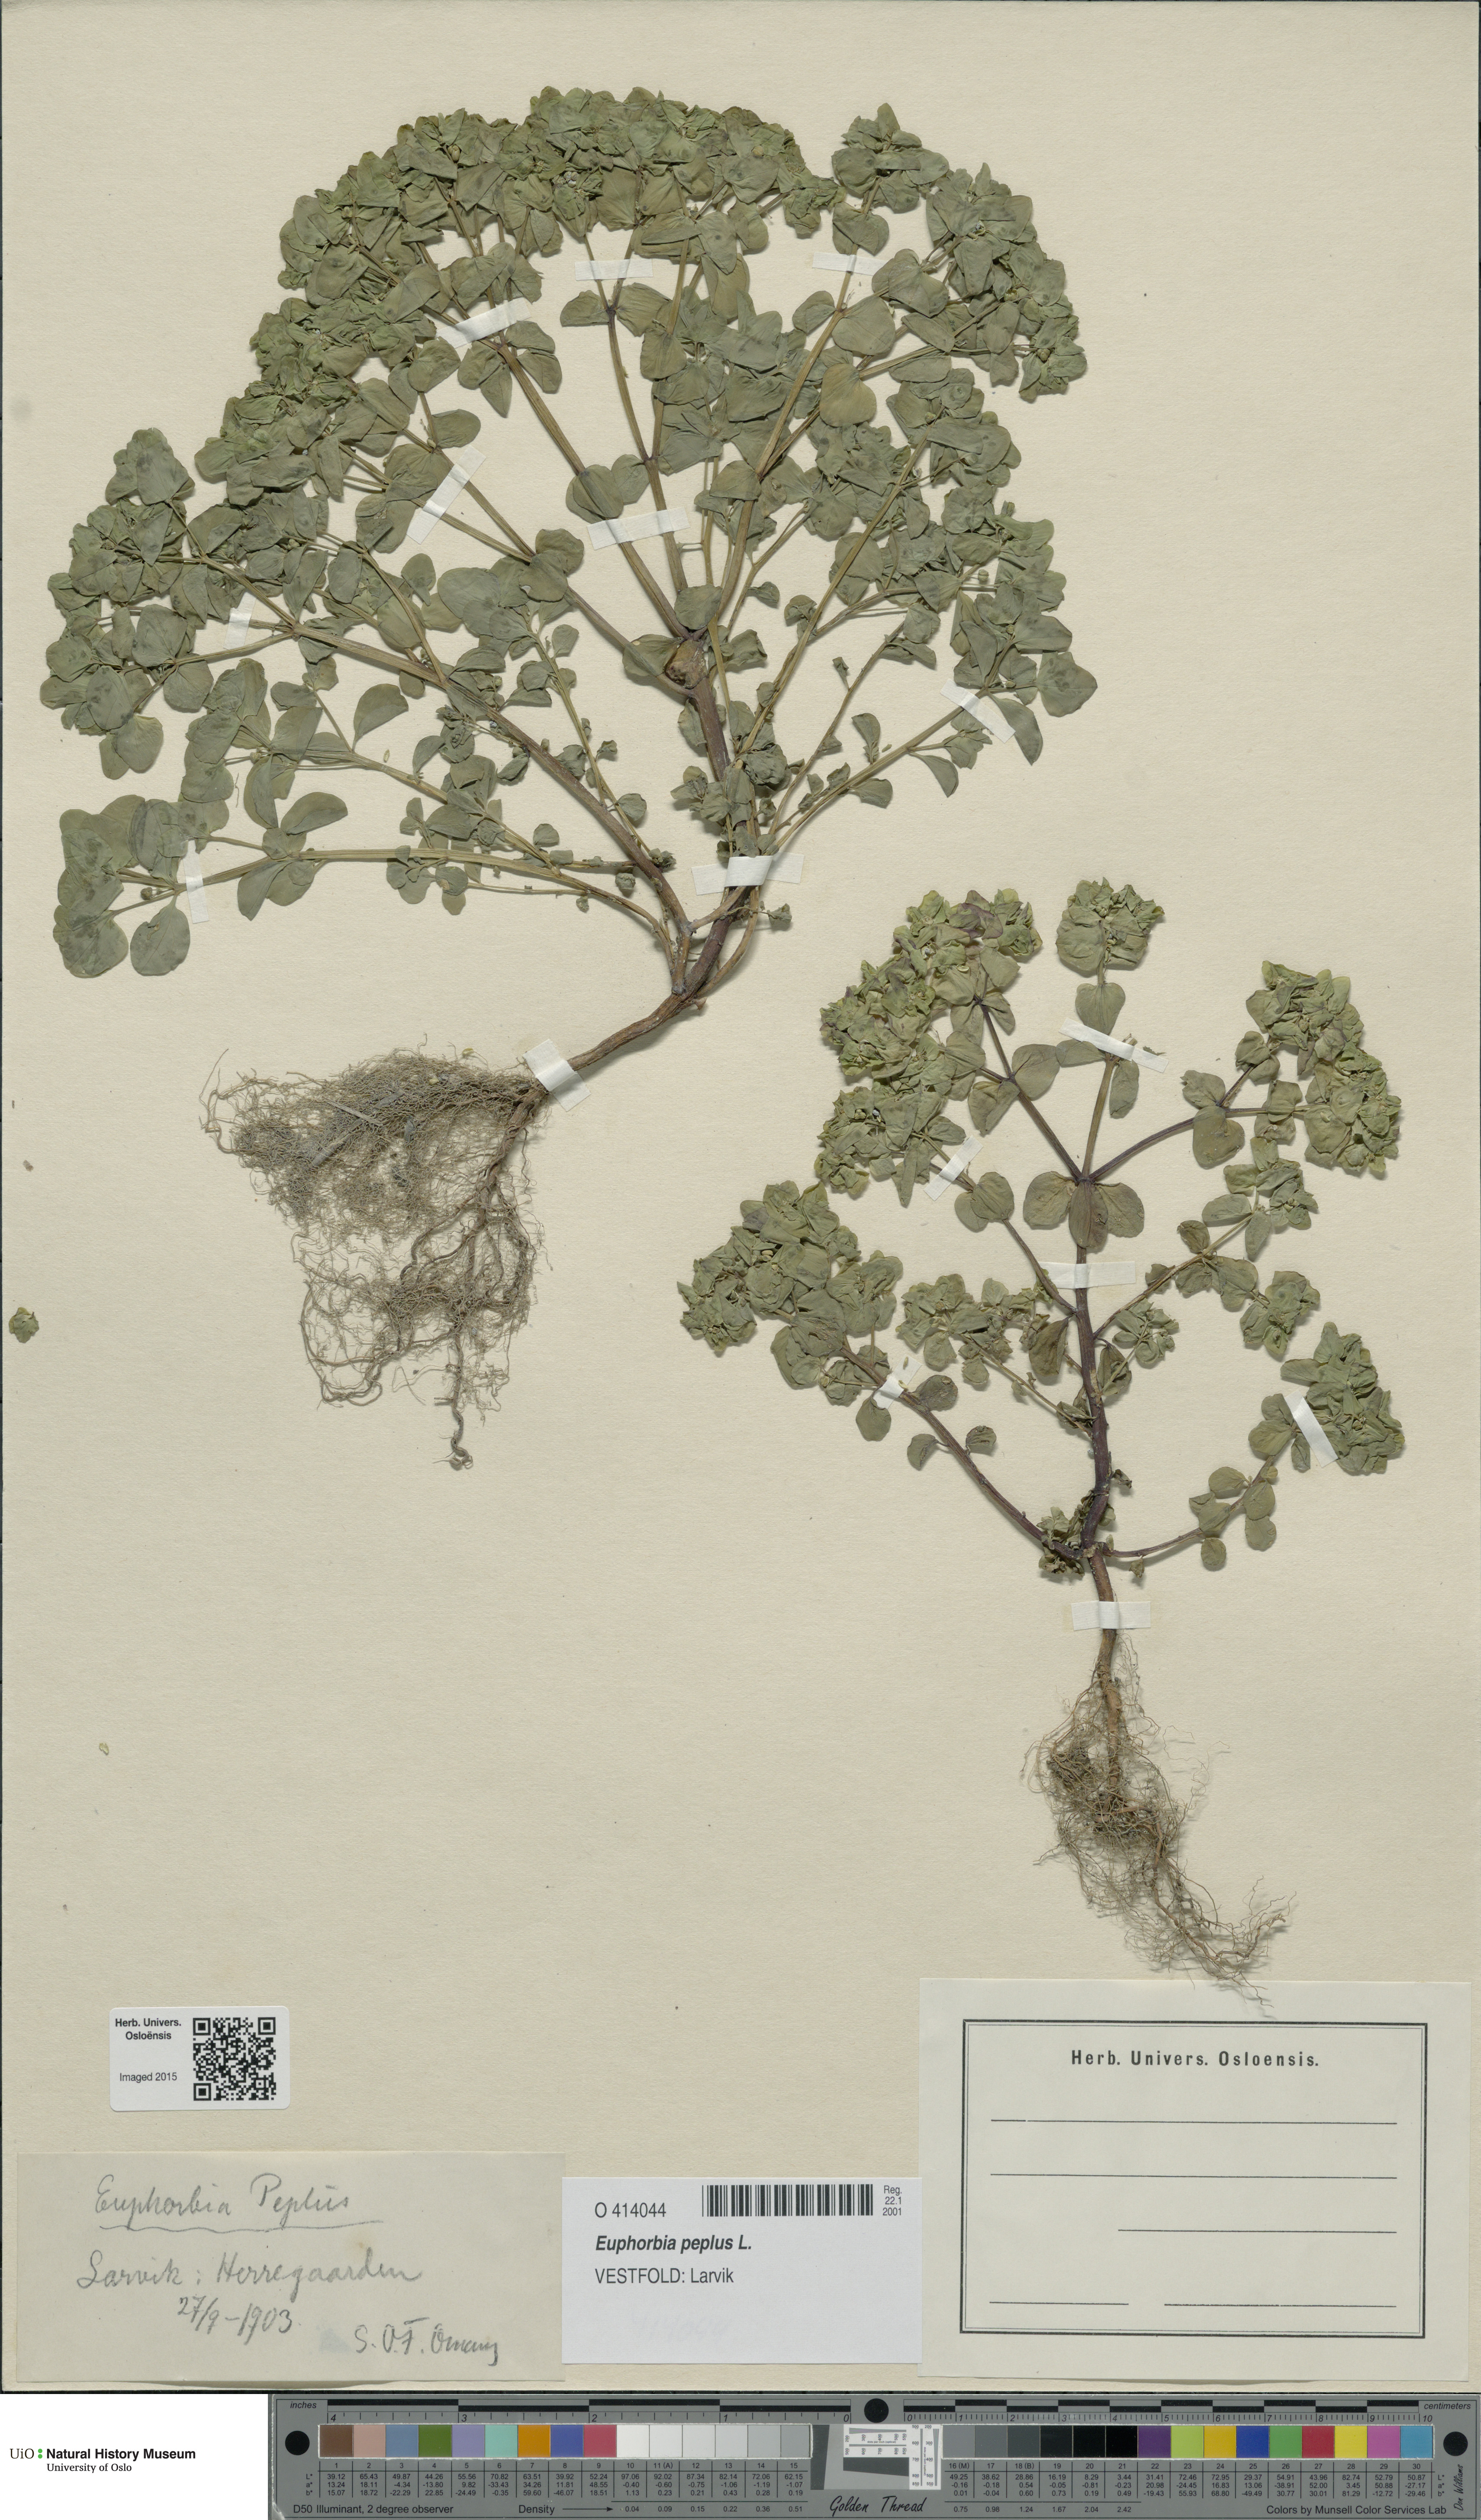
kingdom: Plantae
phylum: Tracheophyta
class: Magnoliopsida
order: Malpighiales
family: Euphorbiaceae
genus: Euphorbia
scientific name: Euphorbia peplus
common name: Petty spurge
